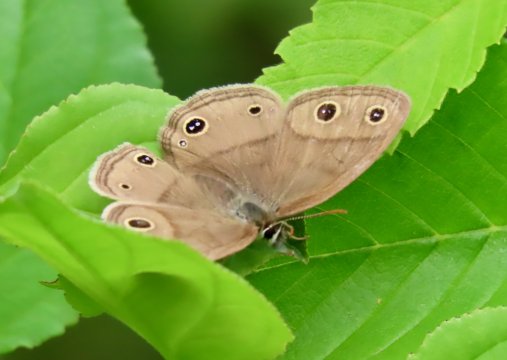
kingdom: Animalia
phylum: Arthropoda
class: Insecta
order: Lepidoptera
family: Nymphalidae
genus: Euptychia
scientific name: Euptychia cymela
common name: Little Wood Satyr
